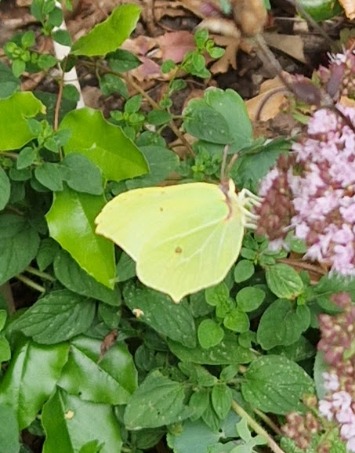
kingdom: Animalia
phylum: Arthropoda
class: Insecta
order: Lepidoptera
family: Pieridae
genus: Gonepteryx
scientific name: Gonepteryx rhamni
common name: Citronsommerfugl
